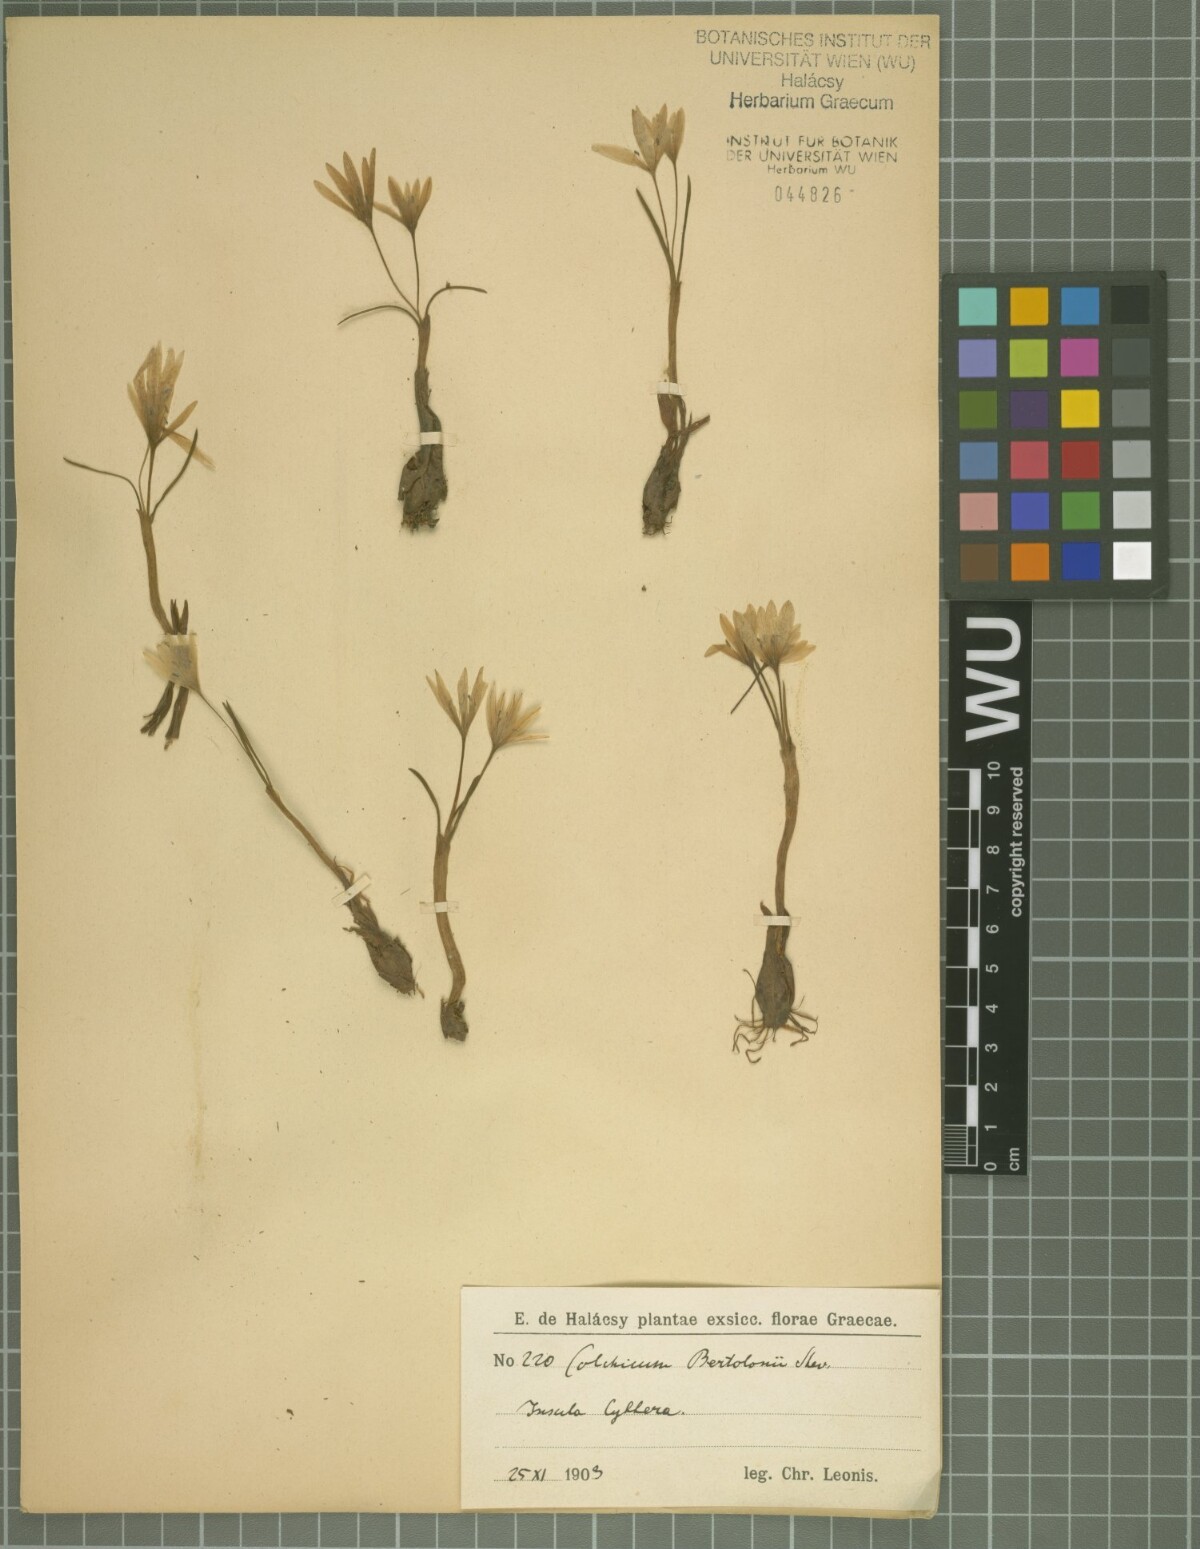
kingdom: Plantae
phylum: Tracheophyta
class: Liliopsida
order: Liliales
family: Colchicaceae
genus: Colchicum
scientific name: Colchicum cupanii
